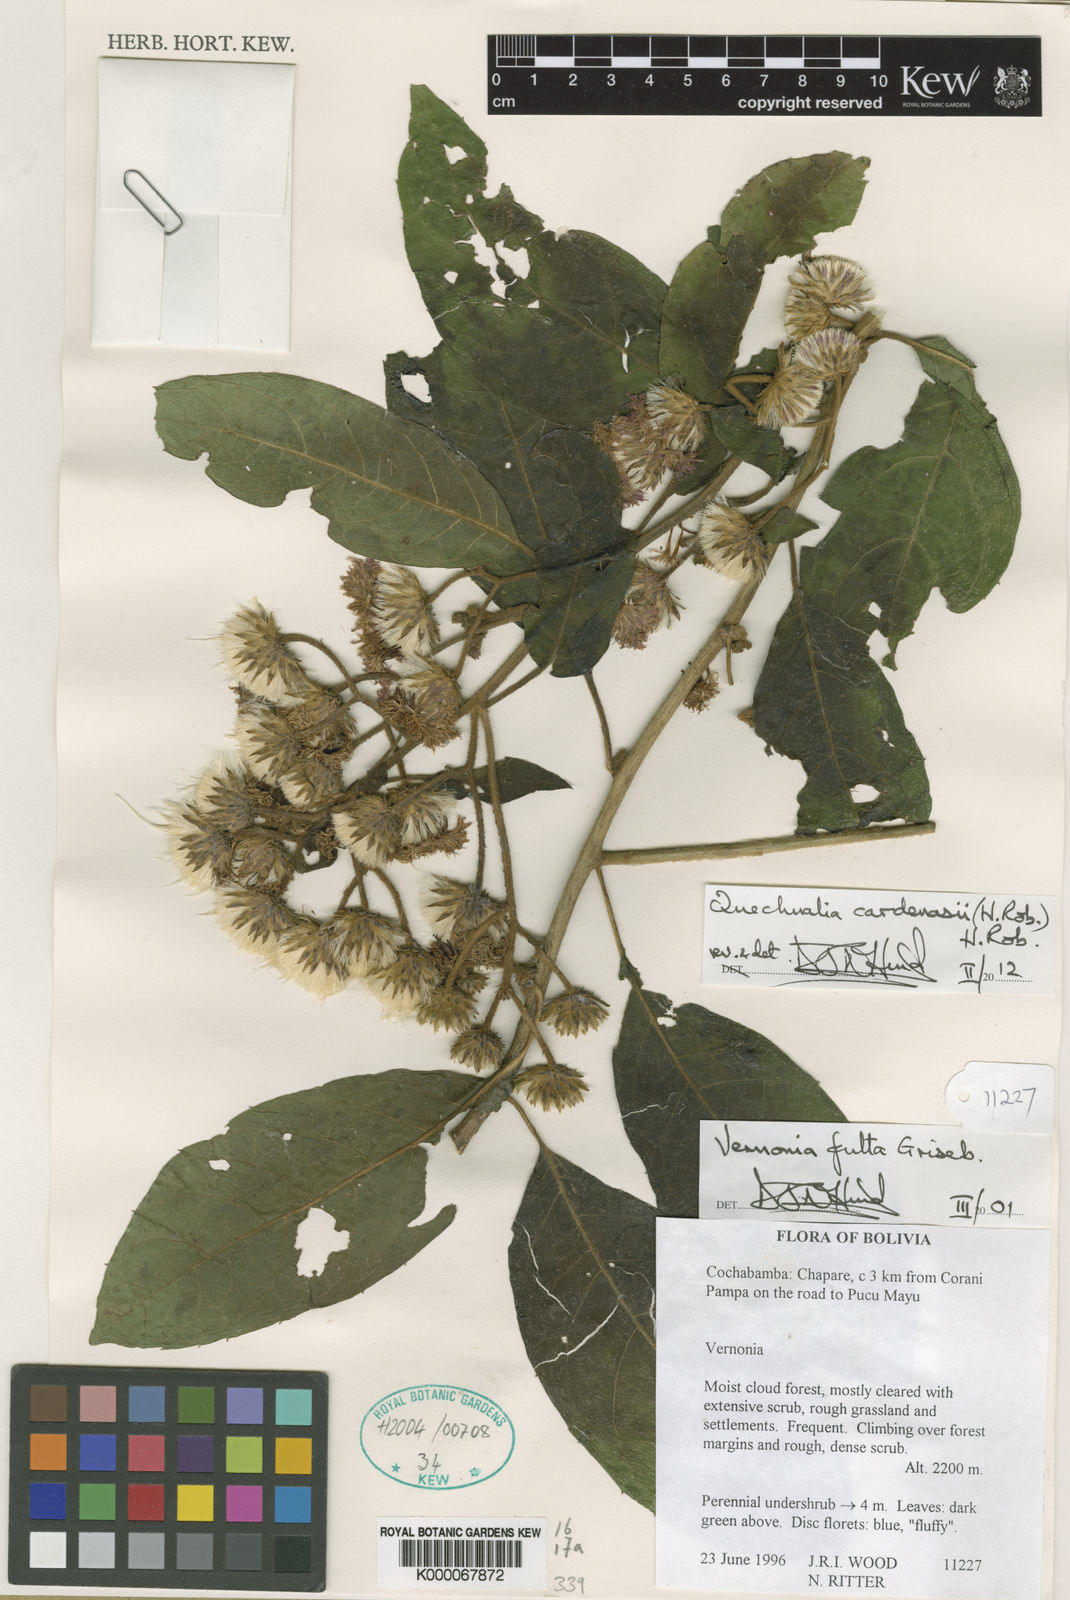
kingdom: Plantae
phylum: Tracheophyta
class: Magnoliopsida
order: Asterales
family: Asteraceae
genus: Vernonia
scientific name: Vernonia
